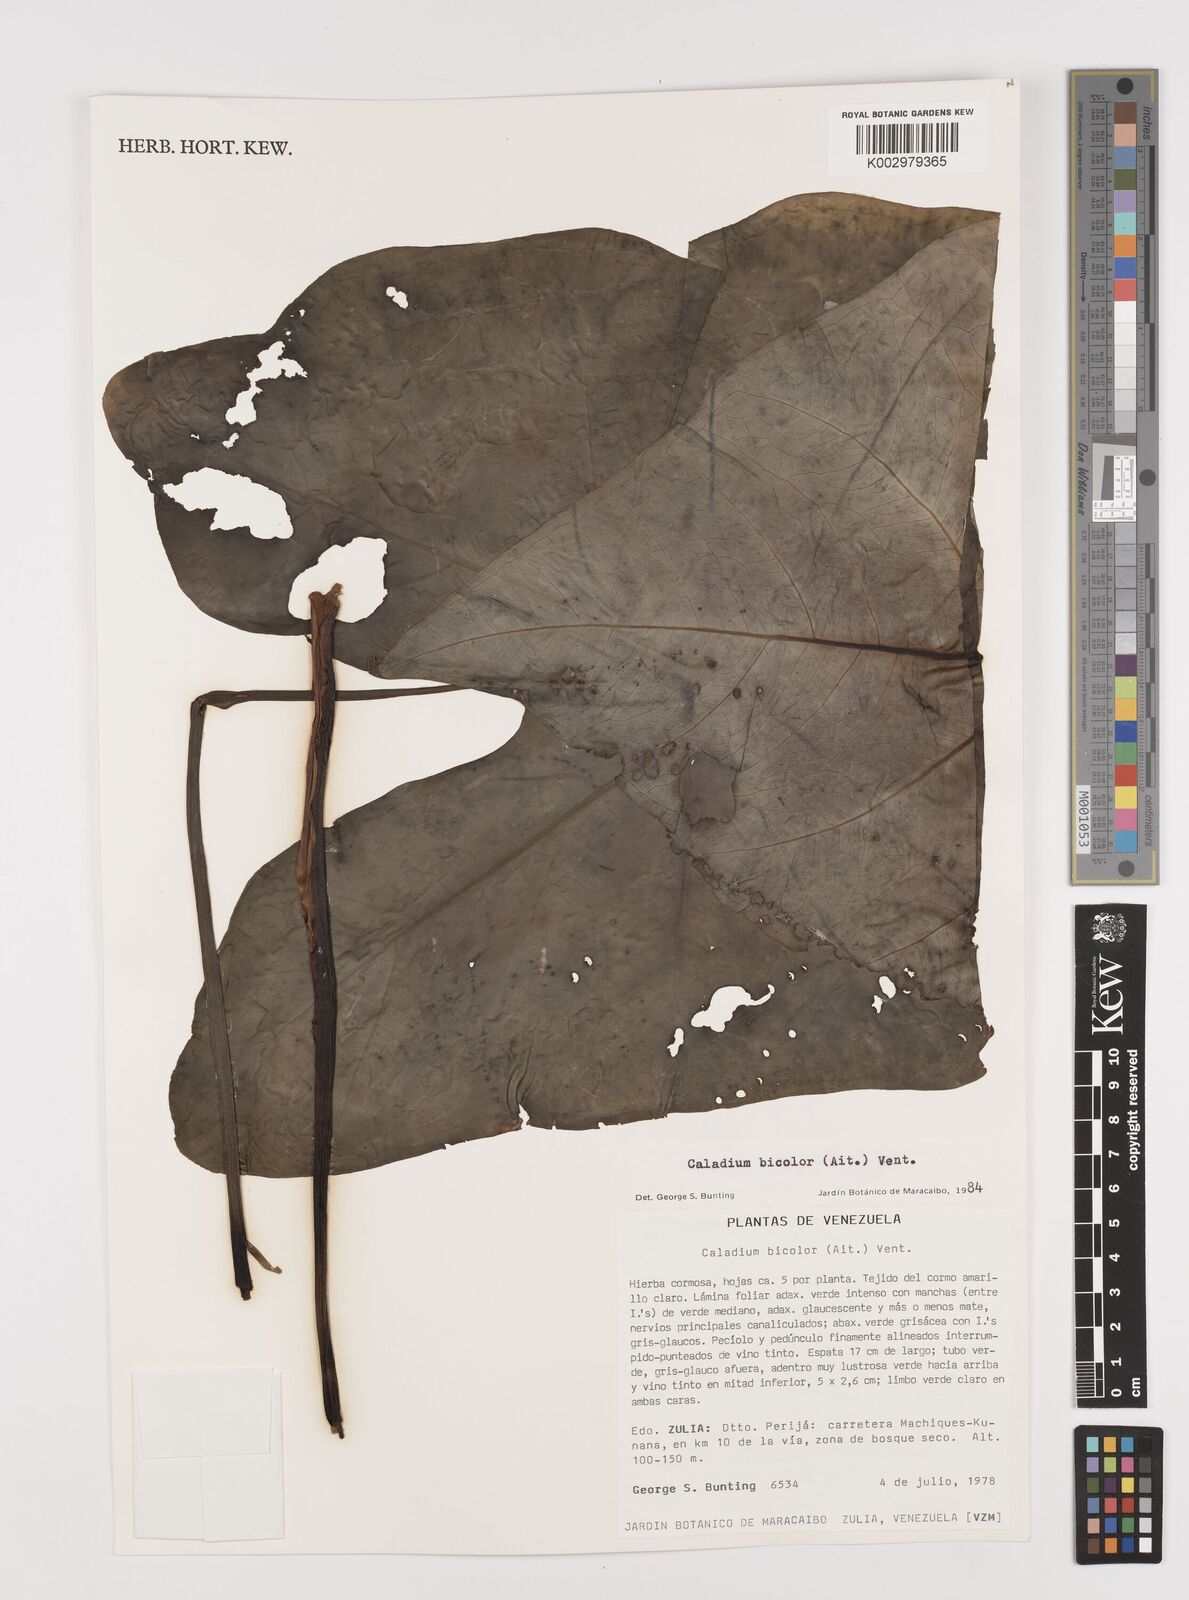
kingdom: Plantae
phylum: Tracheophyta
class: Liliopsida
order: Alismatales
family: Araceae
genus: Caladium
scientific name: Caladium bicolor
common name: Artist's pallet
